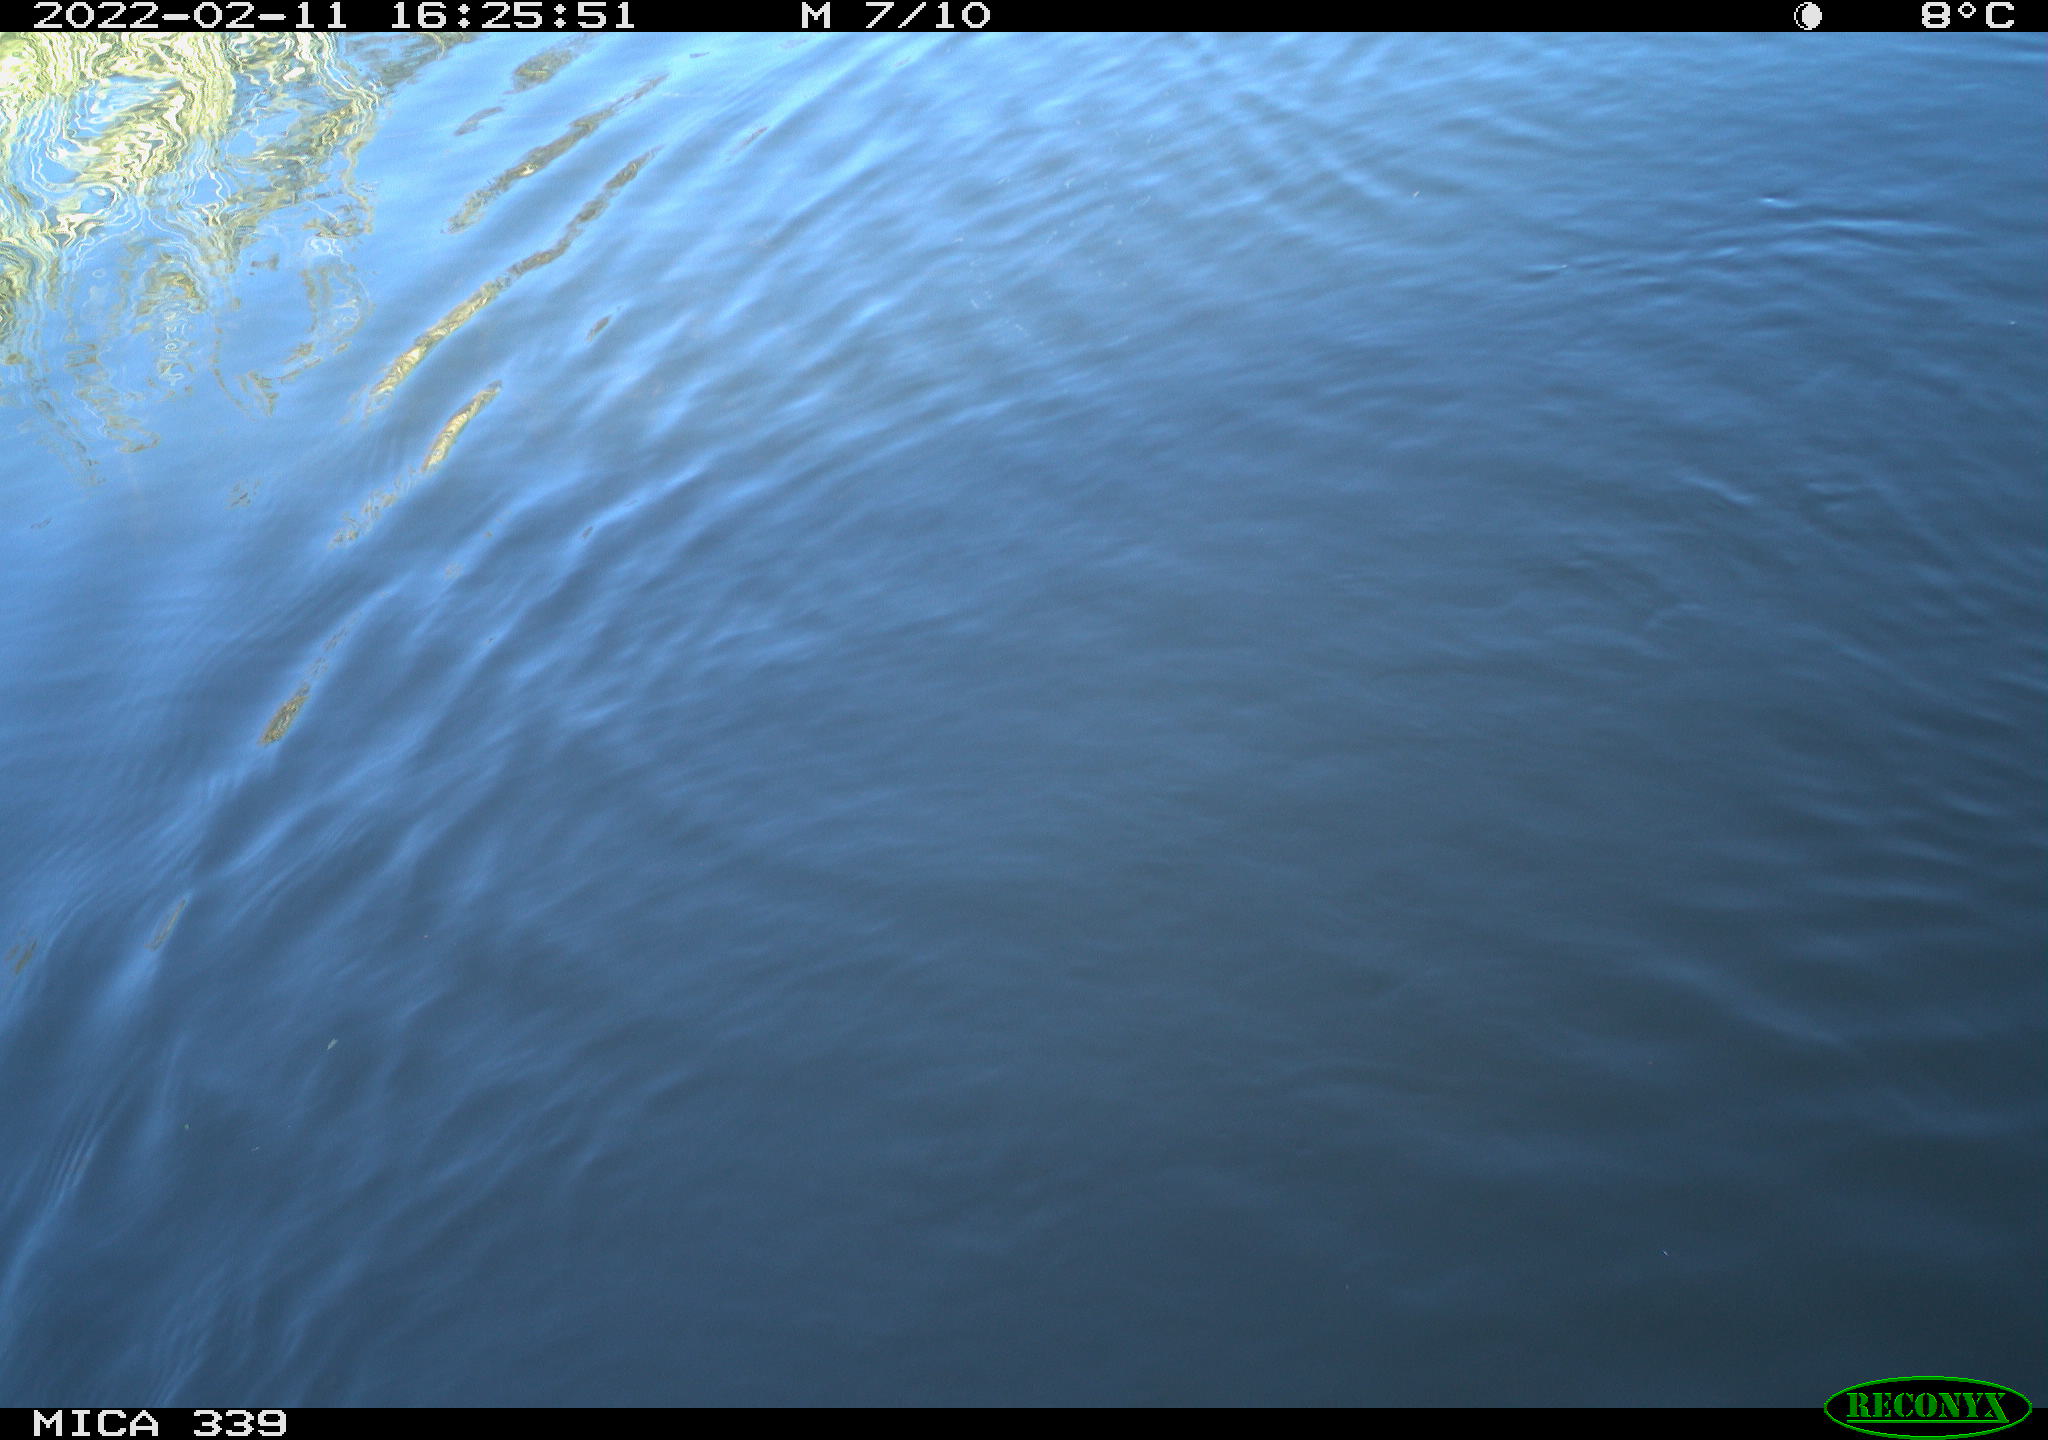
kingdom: Animalia
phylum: Chordata
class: Aves
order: Suliformes
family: Phalacrocoracidae
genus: Phalacrocorax
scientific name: Phalacrocorax carbo
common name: Great cormorant
